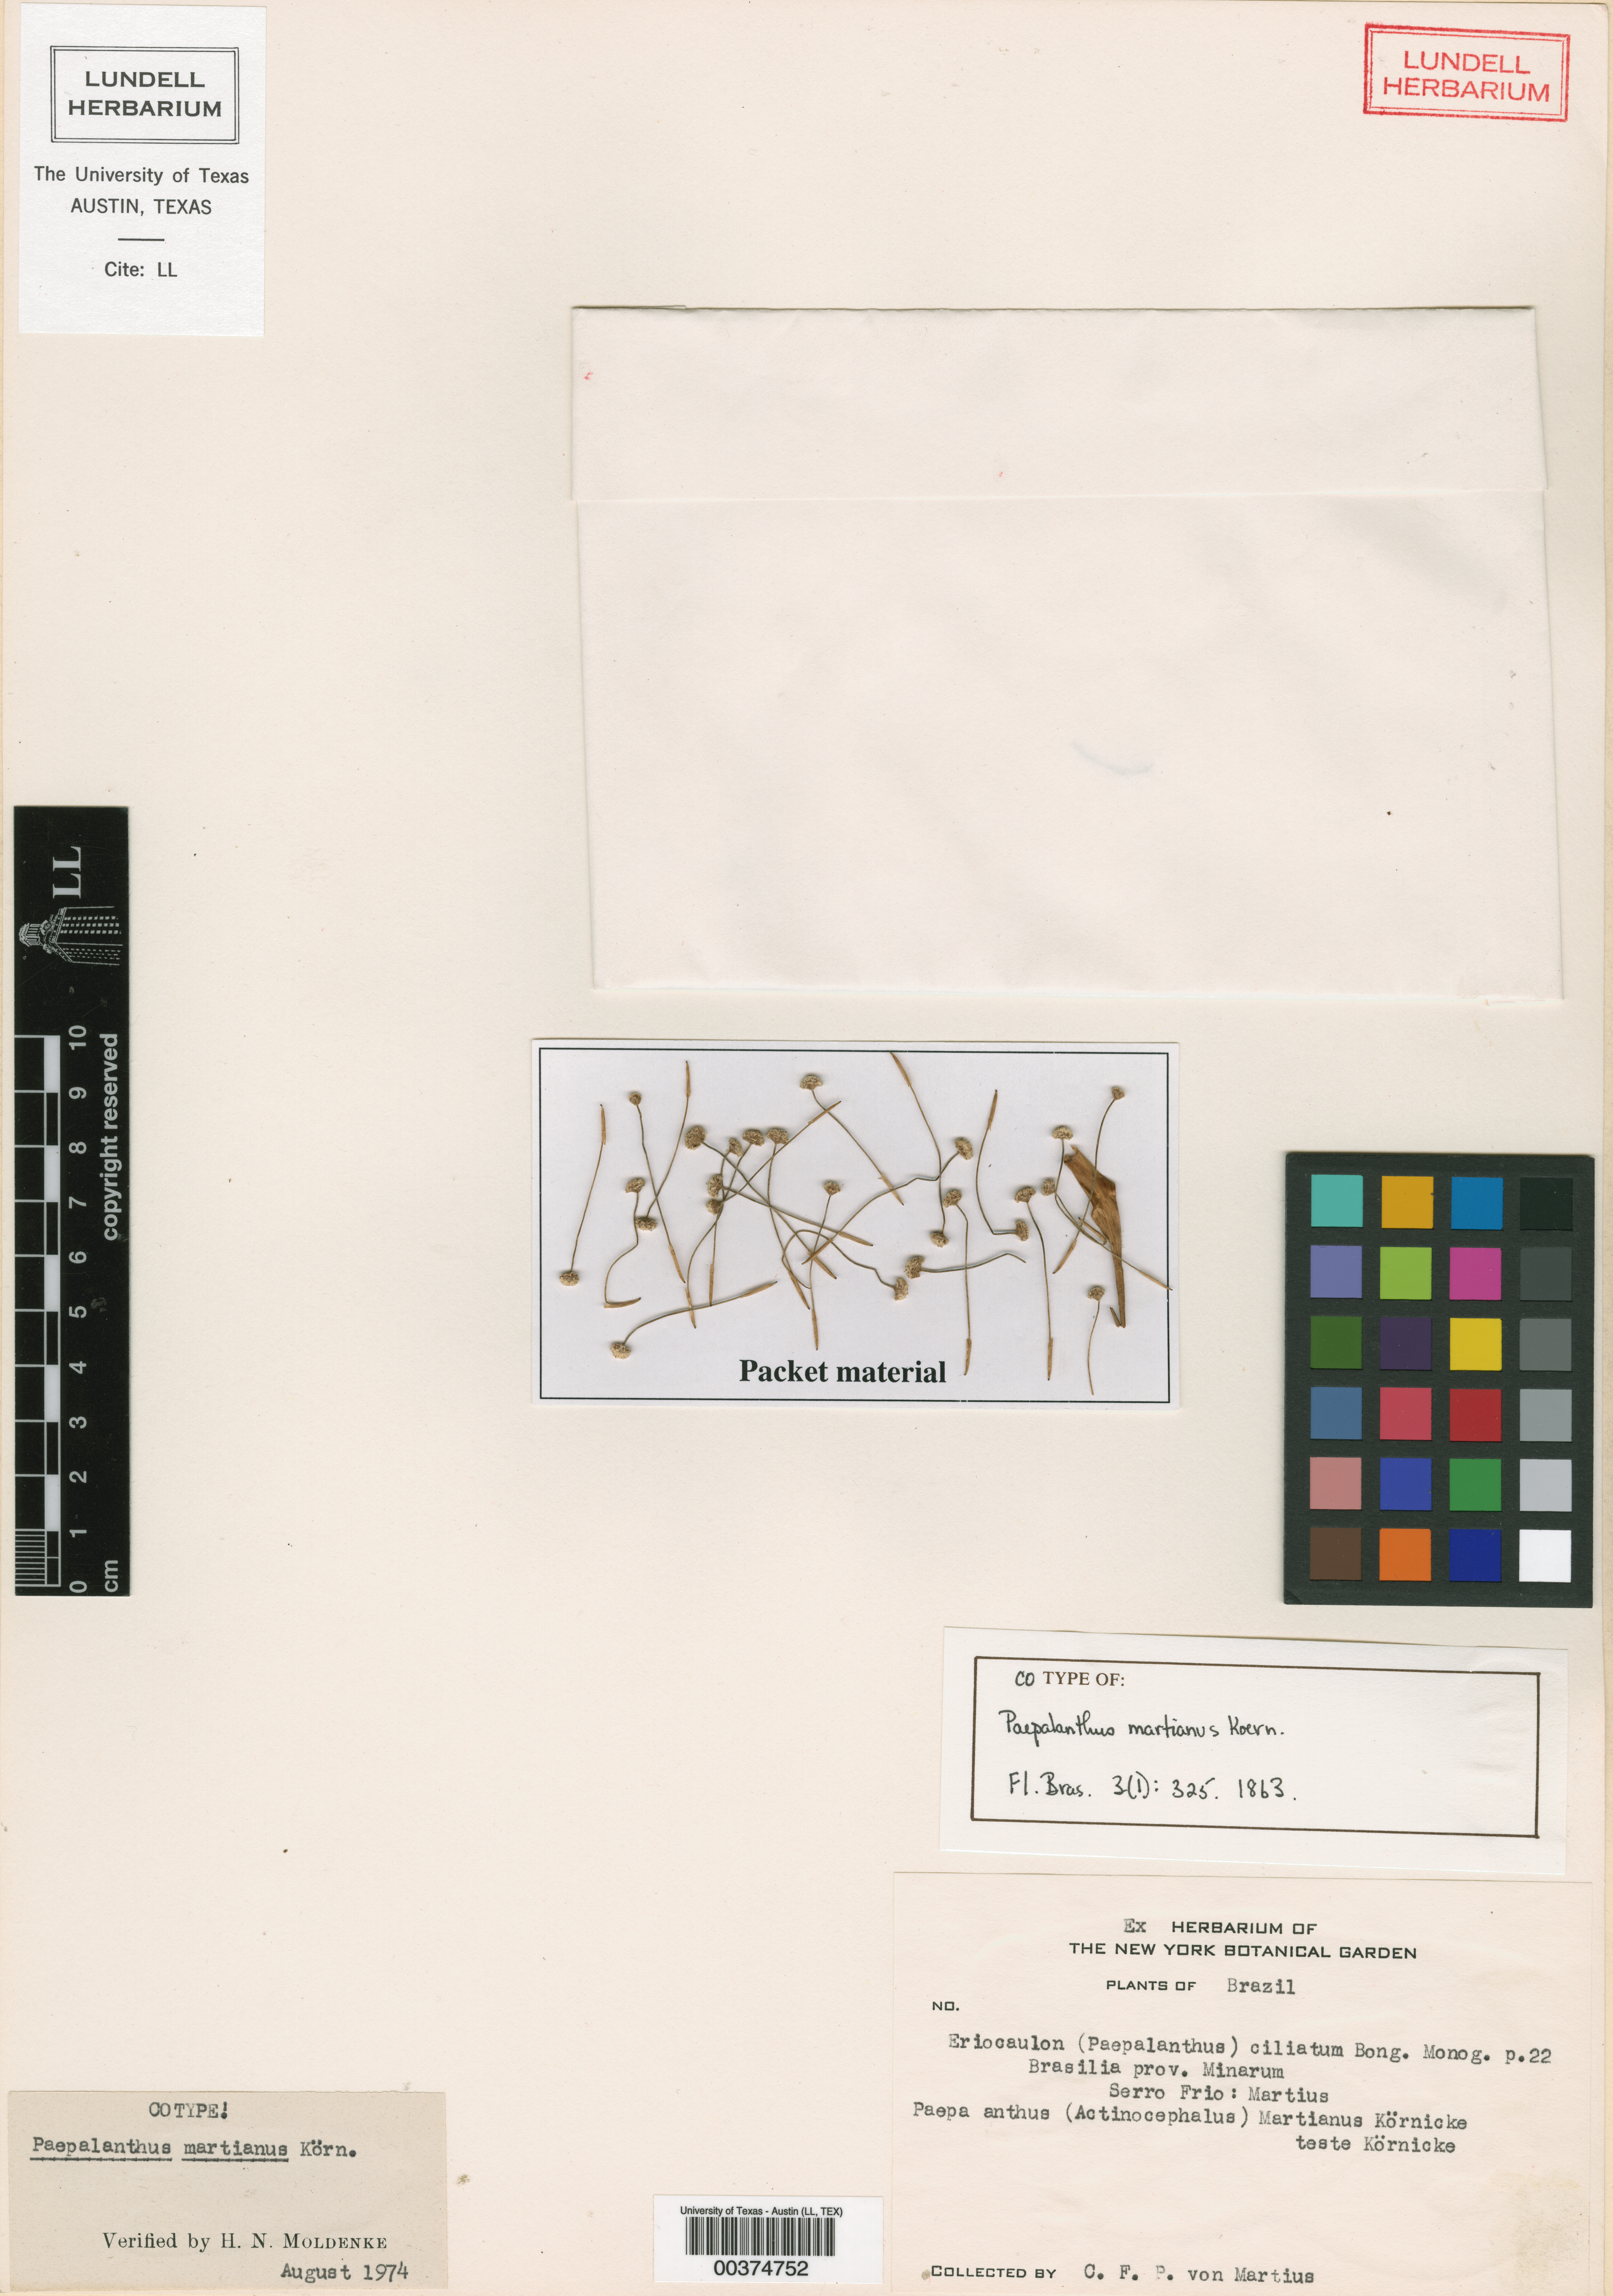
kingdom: Plantae
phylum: Tracheophyta
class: Liliopsida
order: Poales
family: Eriocaulaceae
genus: Paepalanthus
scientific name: Paepalanthus polyanthus
